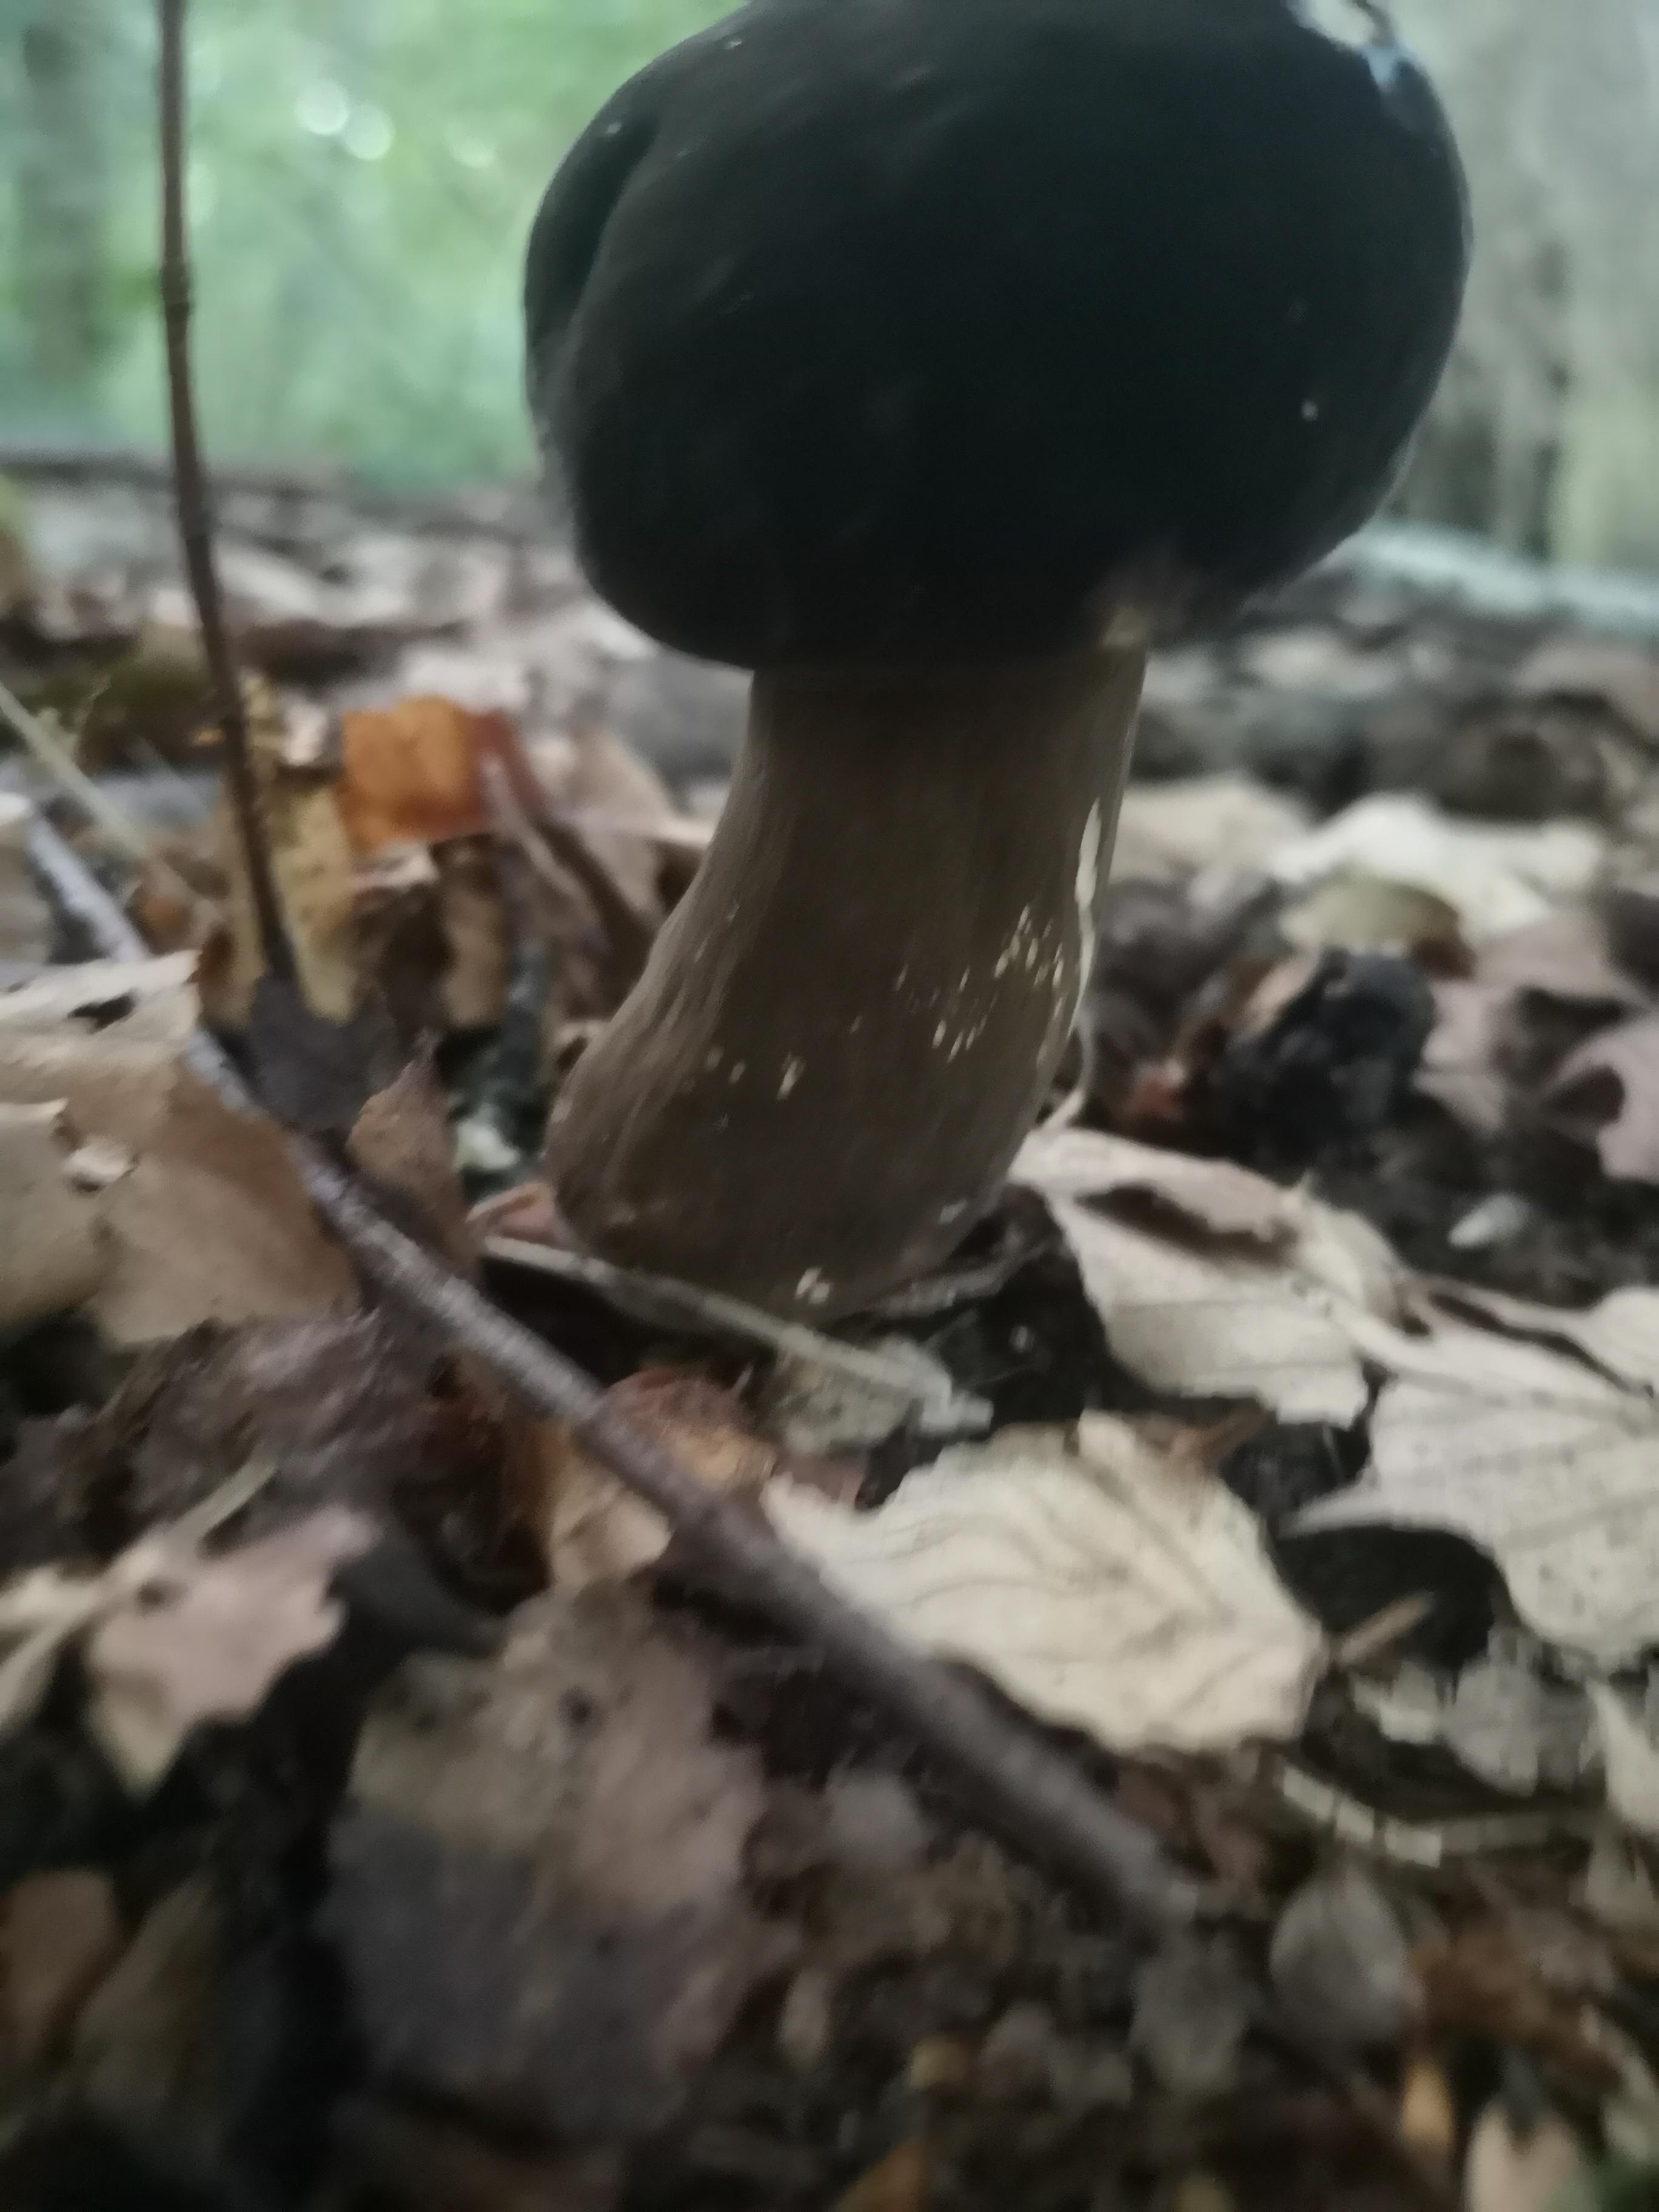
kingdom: Fungi
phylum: Basidiomycota
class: Agaricomycetes
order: Boletales
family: Boletaceae
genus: Porphyrellus
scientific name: Porphyrellus porphyrosporus
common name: sodrørhat
